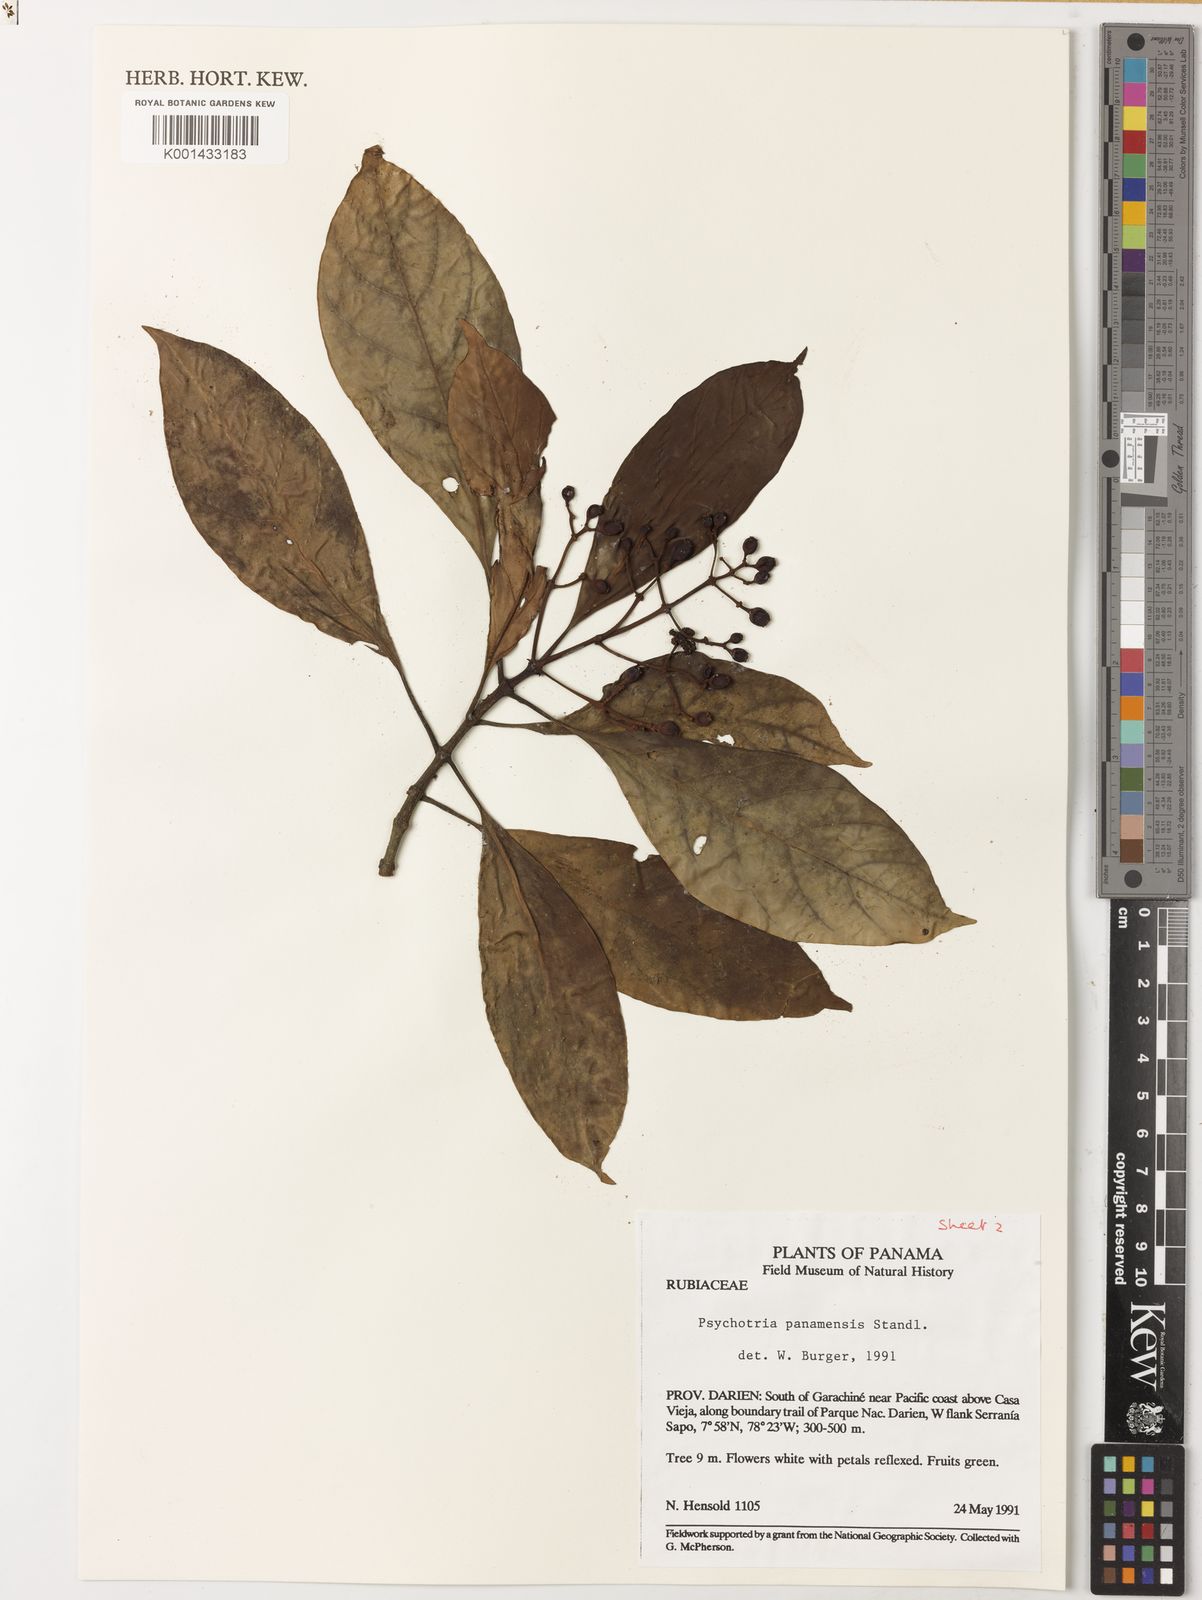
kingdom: Plantae
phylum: Tracheophyta
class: Magnoliopsida
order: Gentianales
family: Rubiaceae
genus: Psychotria
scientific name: Psychotria panamensis
